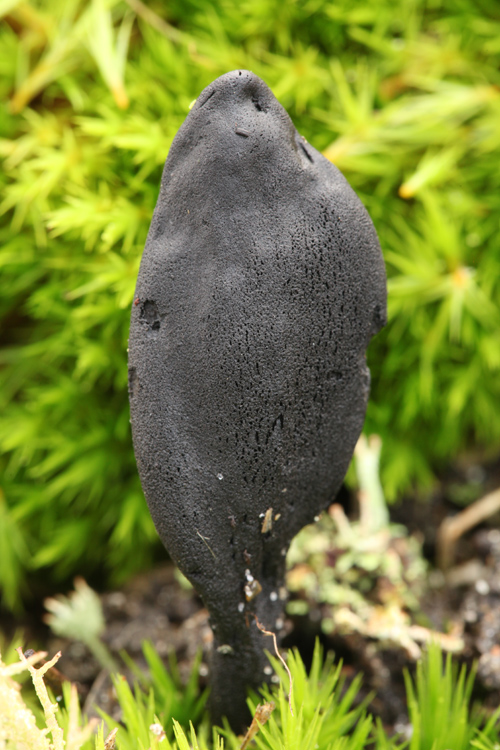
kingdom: Fungi
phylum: Ascomycota
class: Geoglossomycetes
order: Geoglossales
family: Geoglossaceae
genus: Geoglossum
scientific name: Geoglossum cookeianum
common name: bred jordtunge
